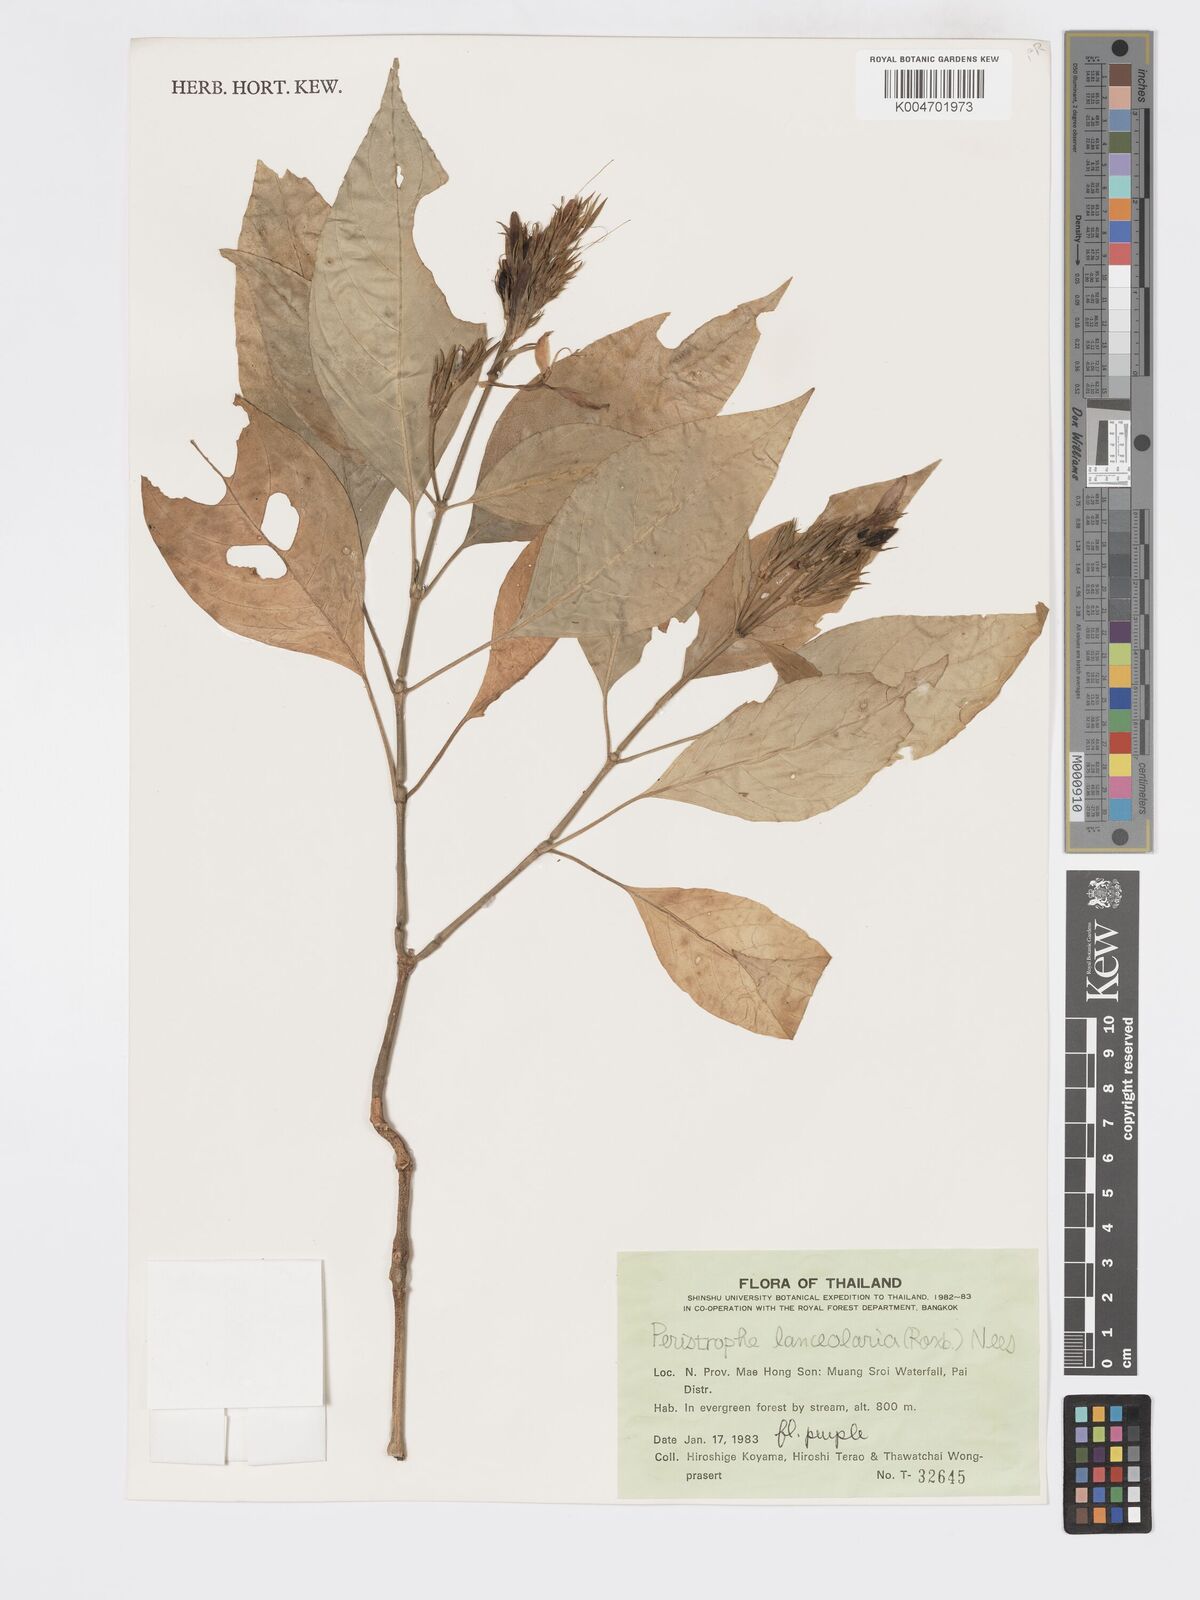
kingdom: Plantae
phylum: Tracheophyta
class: Magnoliopsida
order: Lamiales
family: Acanthaceae
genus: Dicliptera
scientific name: Dicliptera lanceolaria
